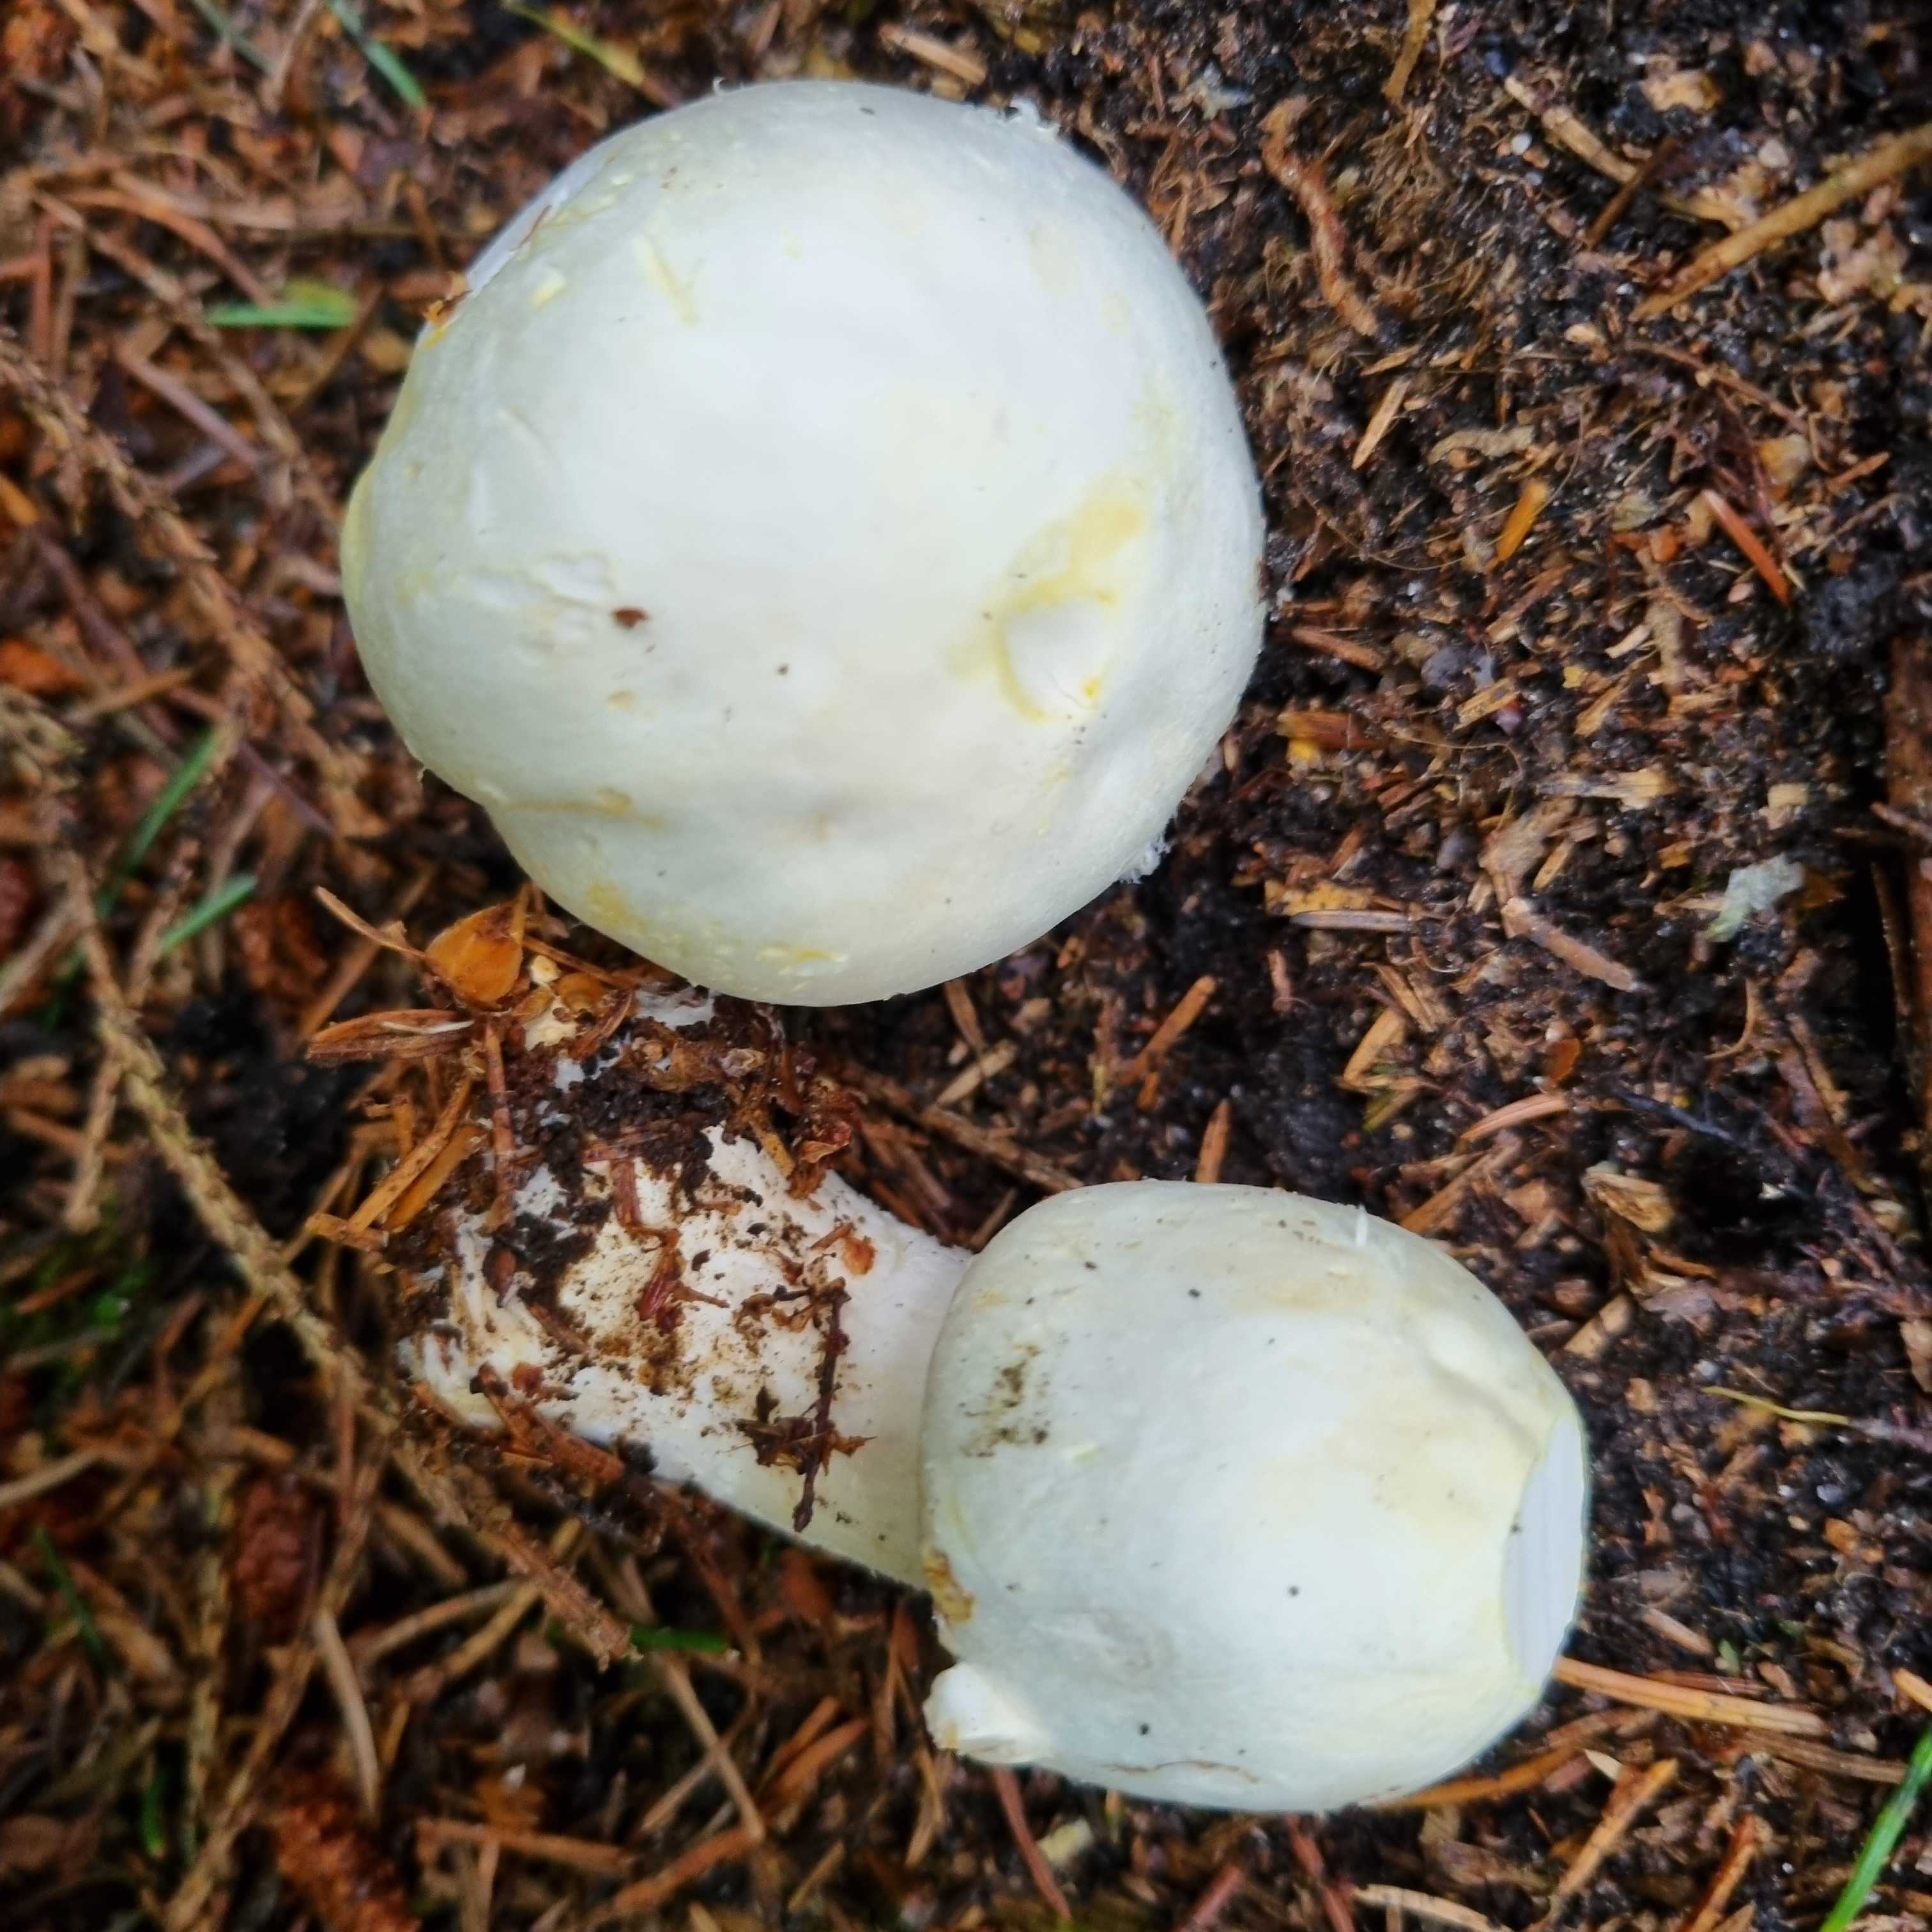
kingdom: Fungi
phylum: Basidiomycota
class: Agaricomycetes
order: Agaricales
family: Agaricaceae
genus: Agaricus
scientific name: Agaricus
